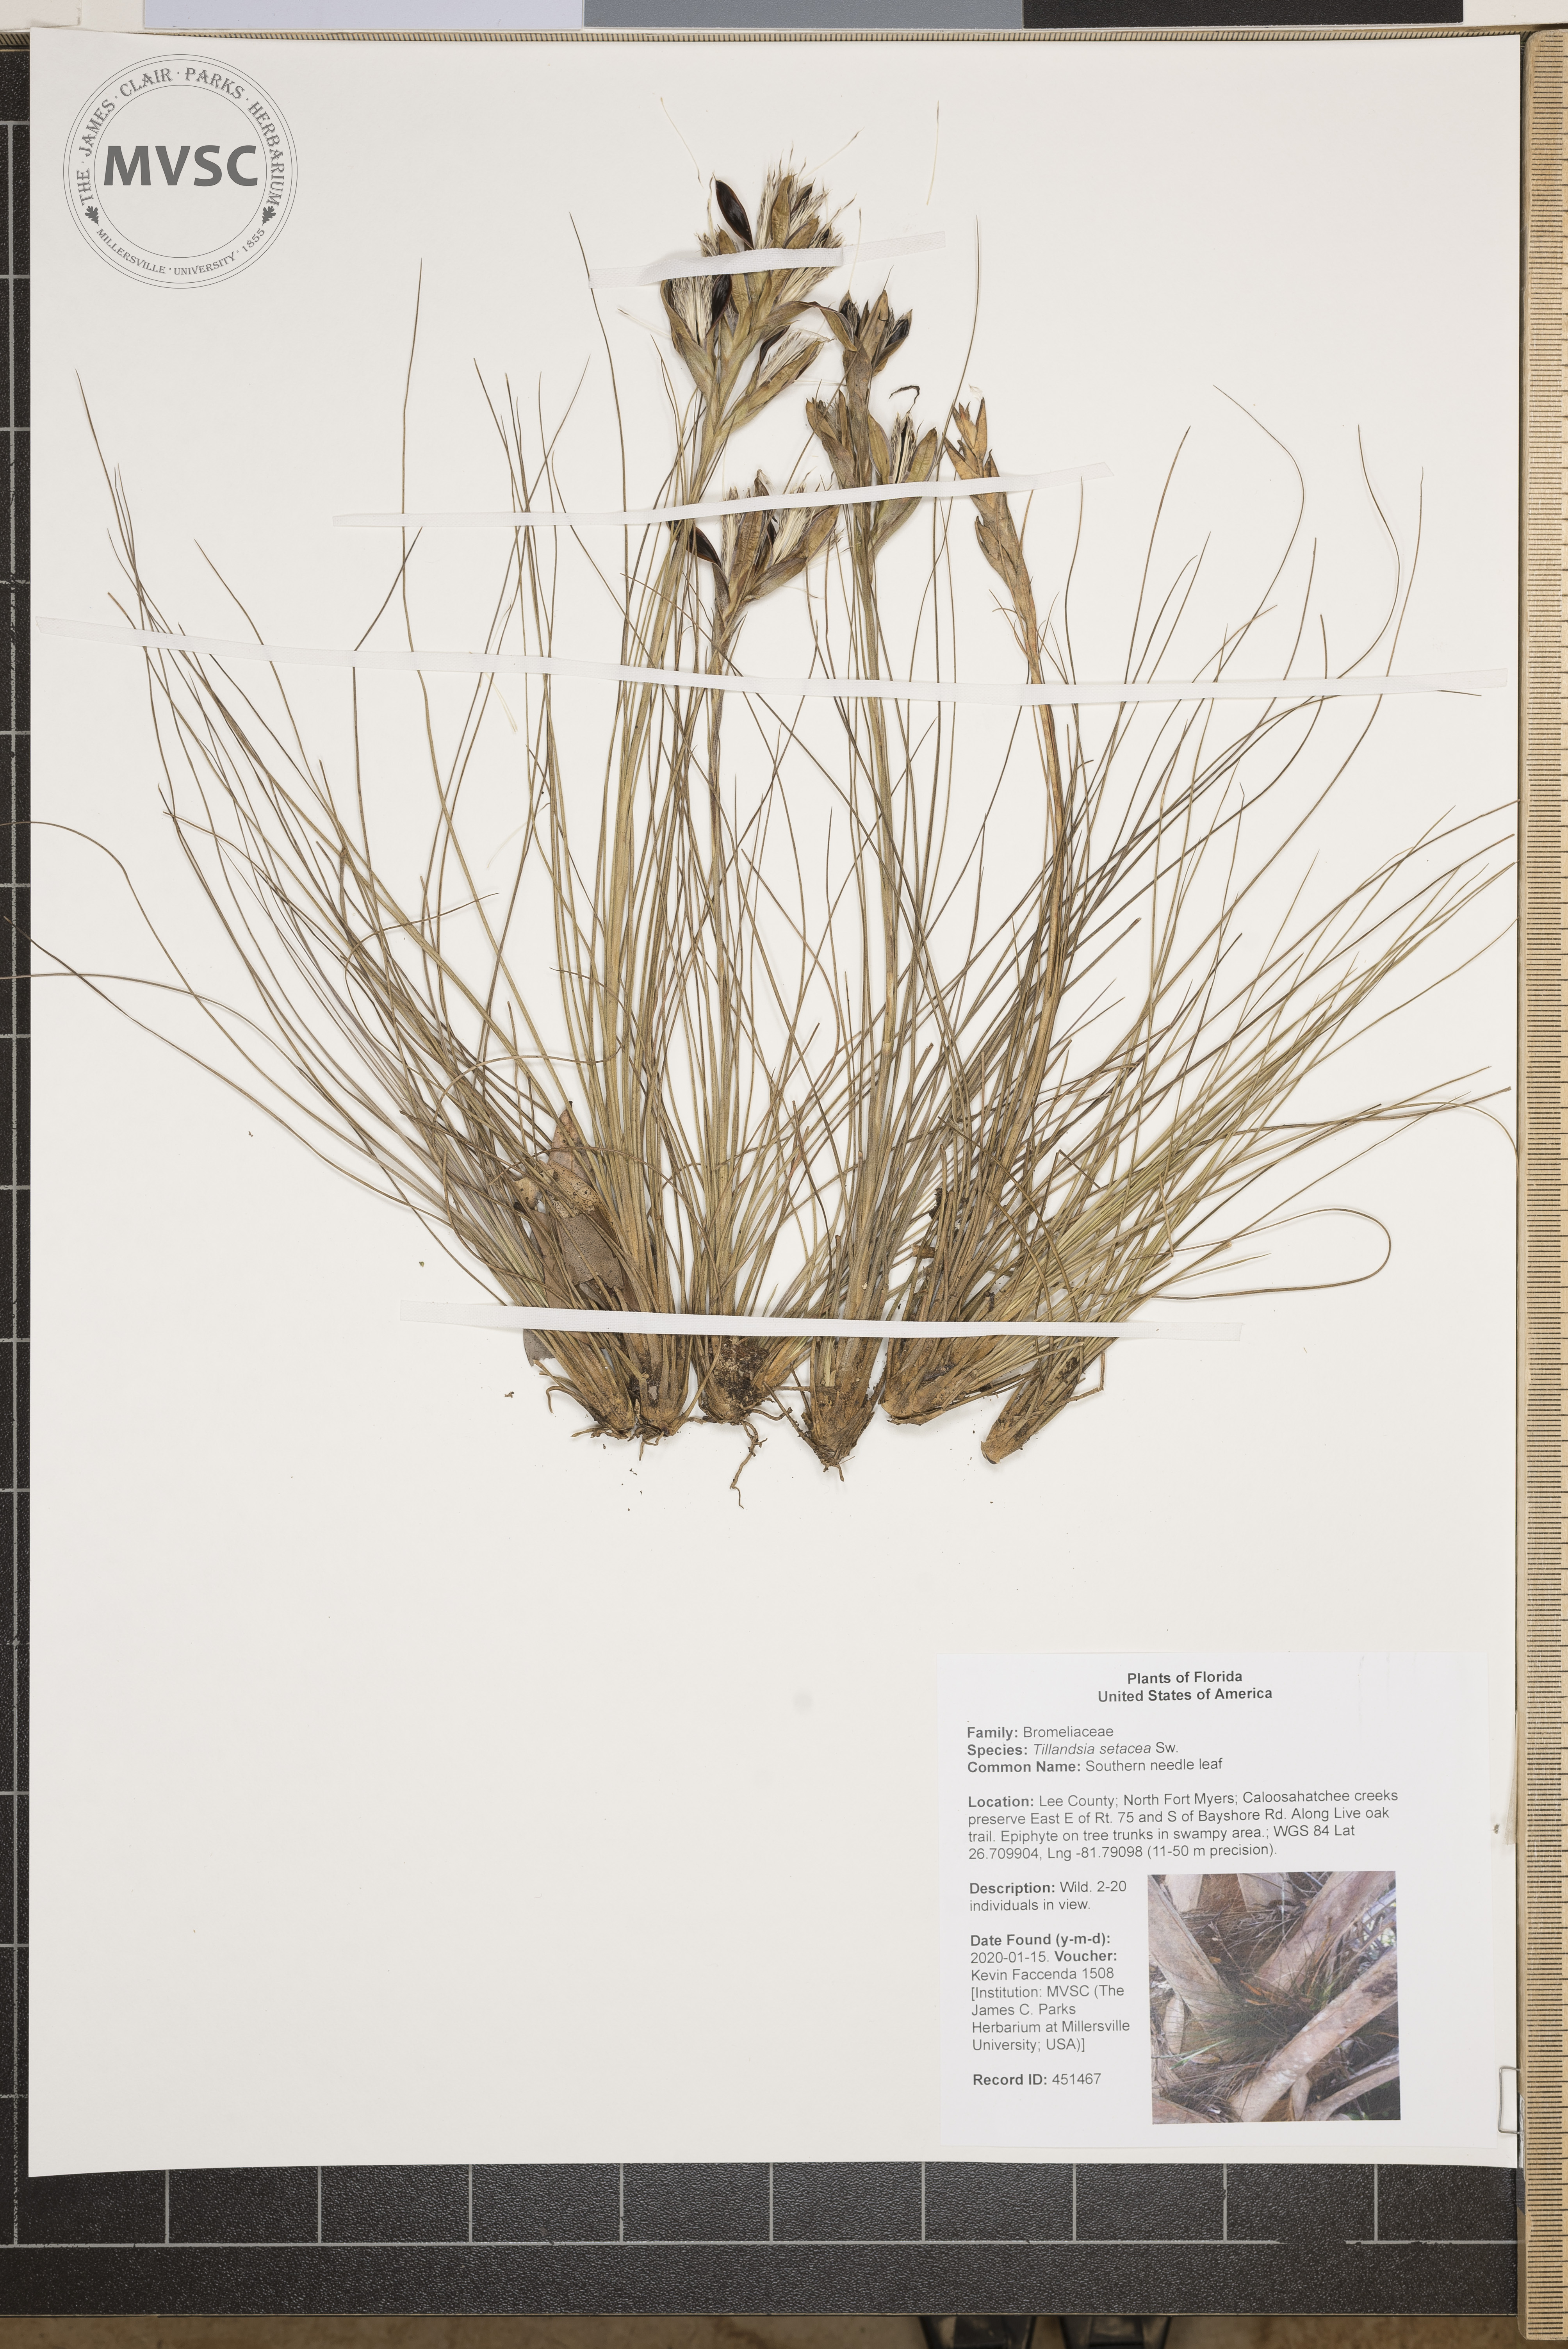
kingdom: Plantae
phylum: Tracheophyta
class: Liliopsida
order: Poales
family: Bromeliaceae
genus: Tillandsia
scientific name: Tillandsia setacea
